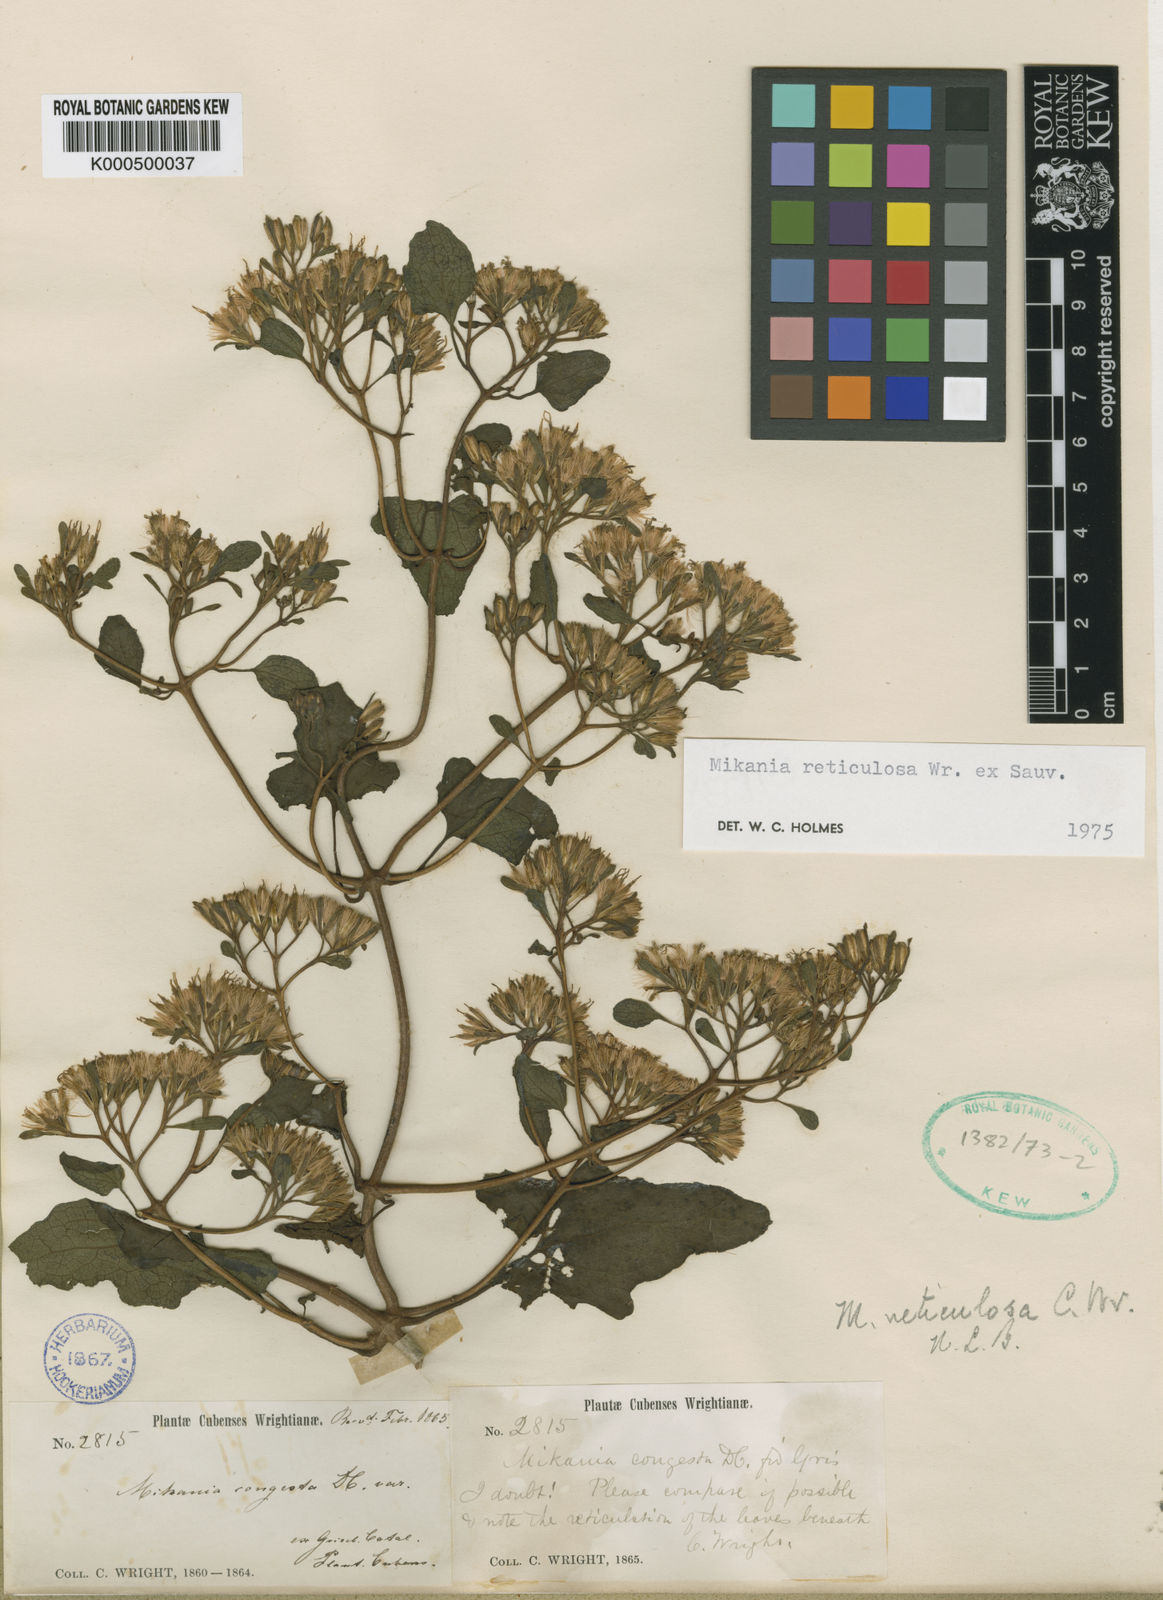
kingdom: Plantae
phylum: Tracheophyta
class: Magnoliopsida
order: Asterales
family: Asteraceae
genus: Mikania
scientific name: Mikania
